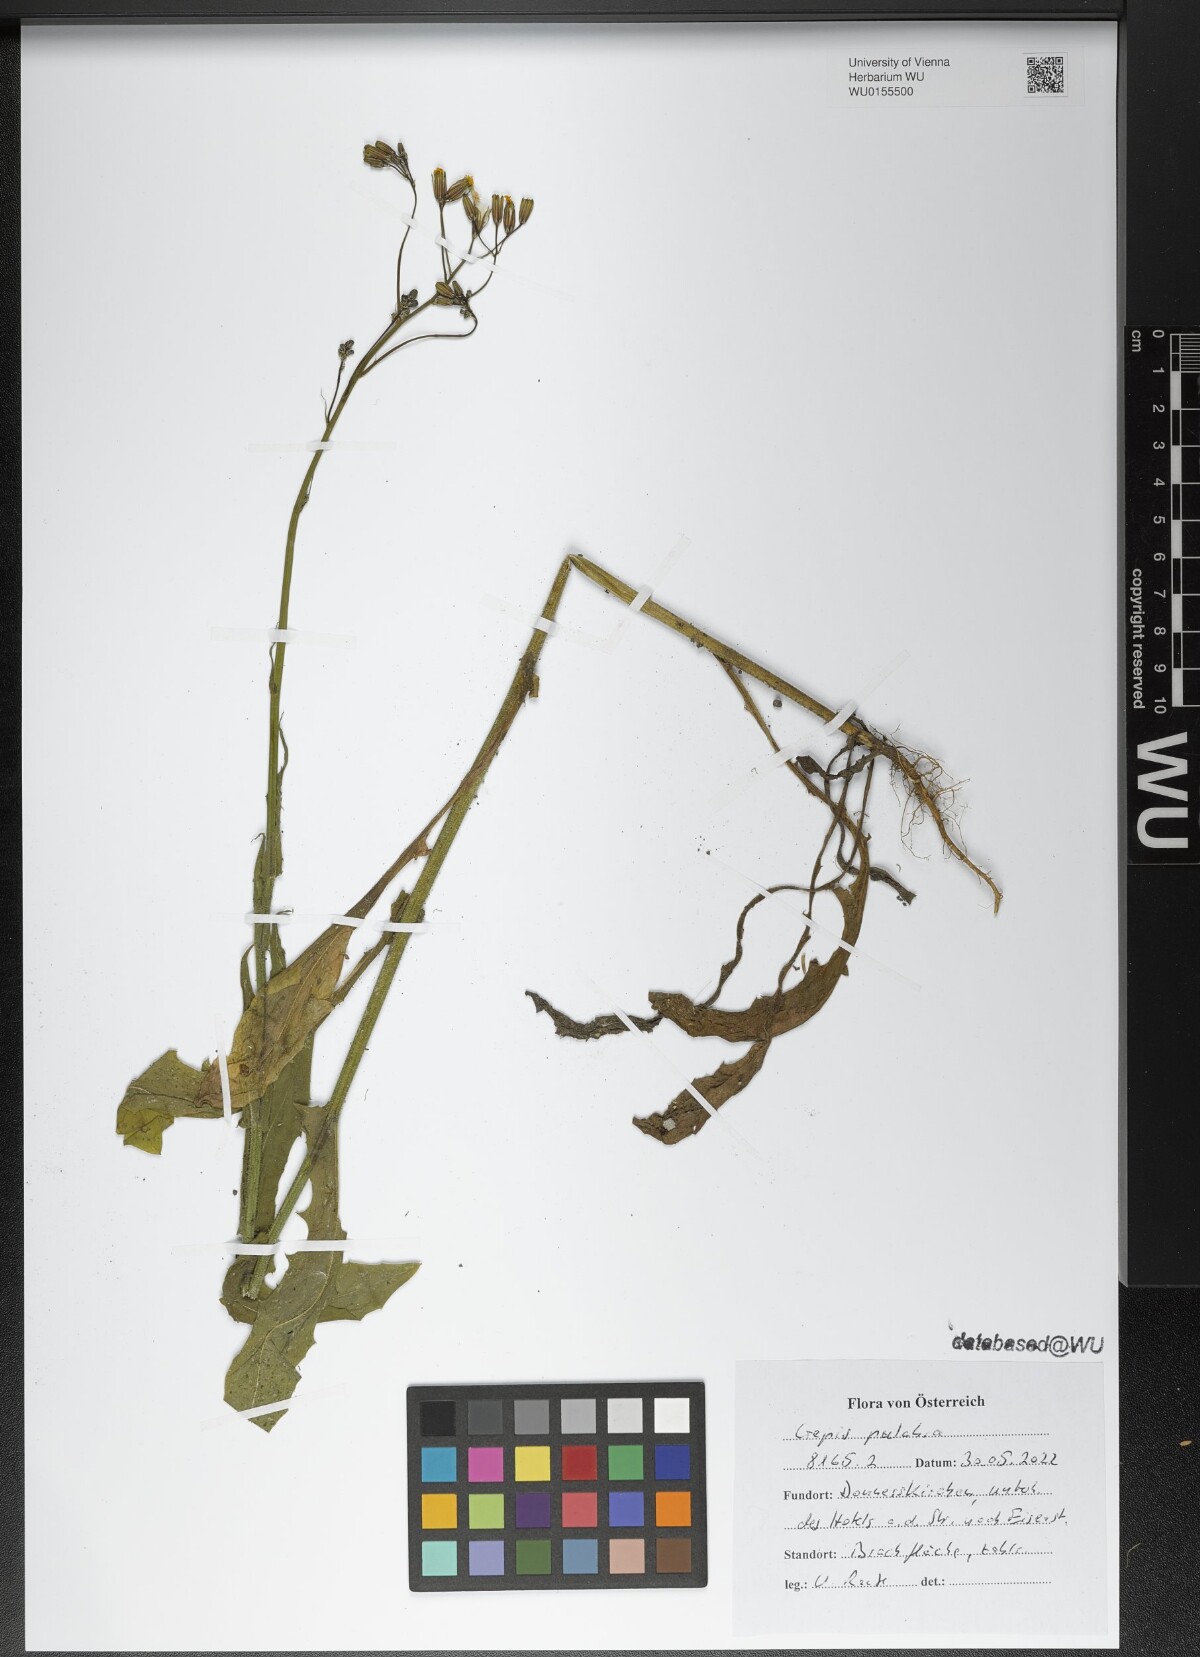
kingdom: Plantae
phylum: Tracheophyta
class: Magnoliopsida
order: Asterales
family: Asteraceae
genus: Crepis
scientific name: Crepis pulchra
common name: Hawk's-beard
